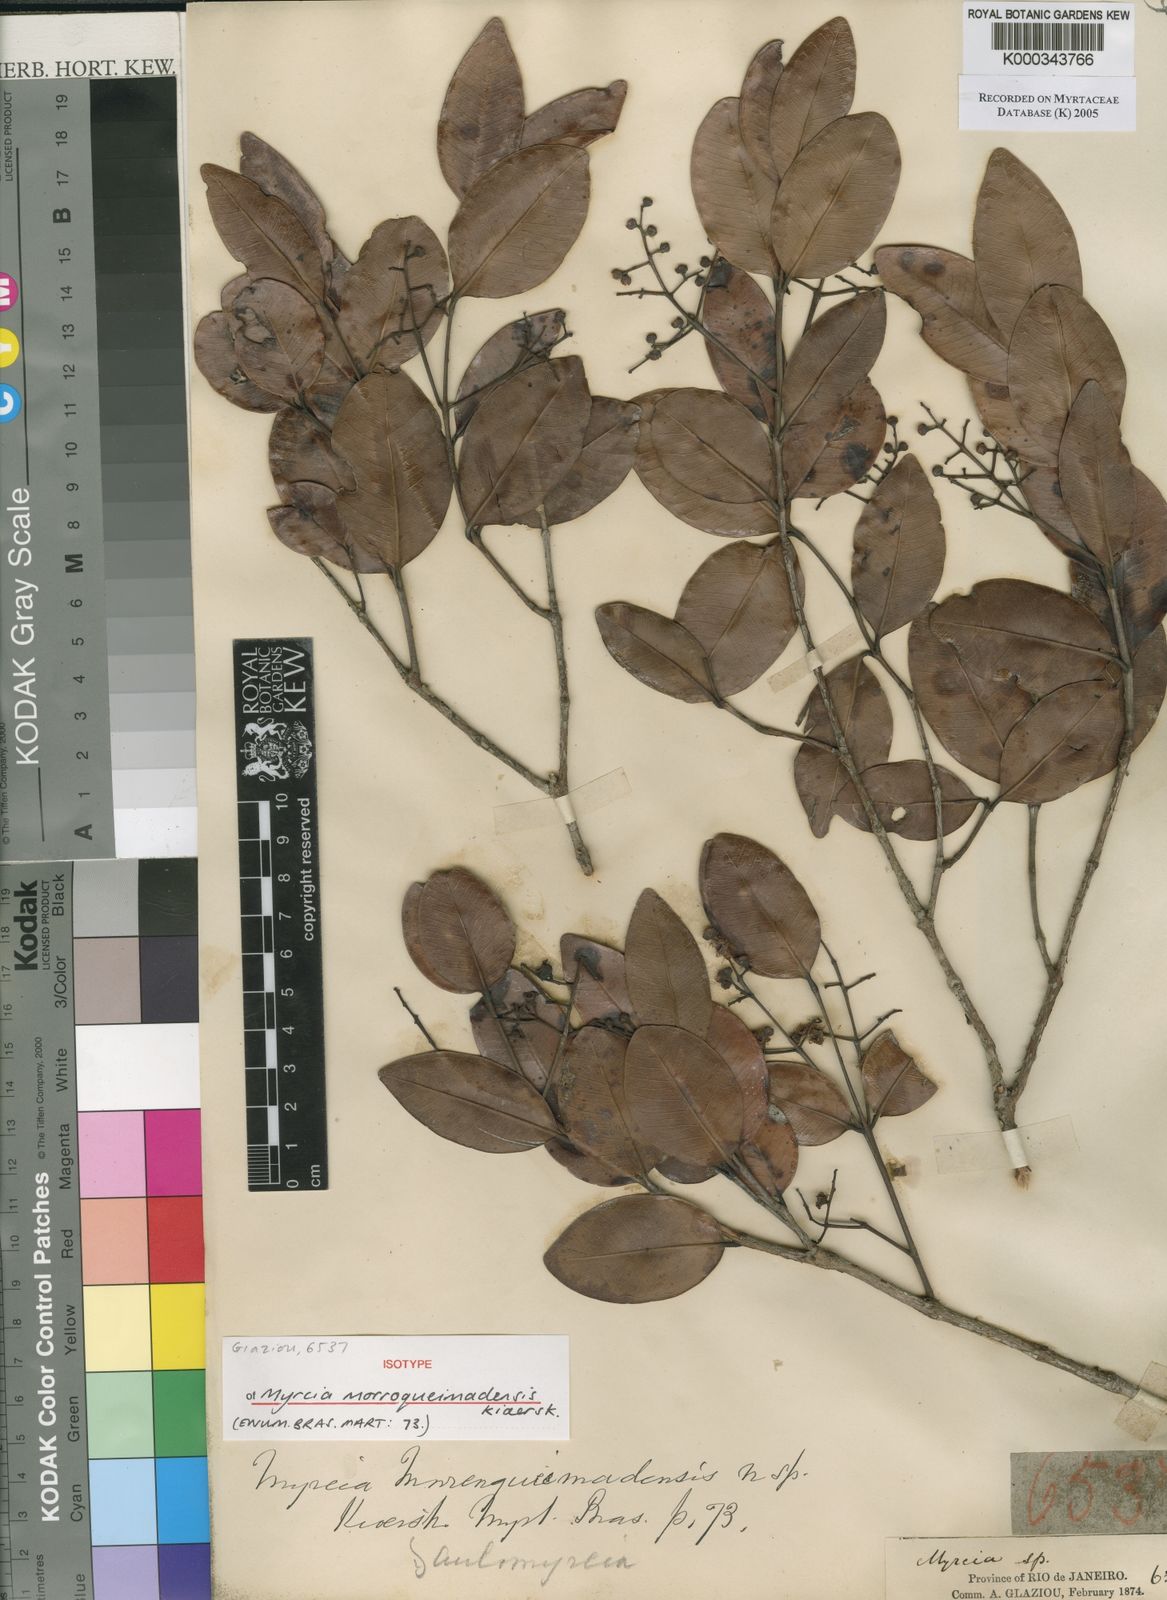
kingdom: Plantae
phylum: Tracheophyta
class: Magnoliopsida
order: Myrtales
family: Myrtaceae
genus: Myrcia
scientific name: Myrcia morroqueimadensis
